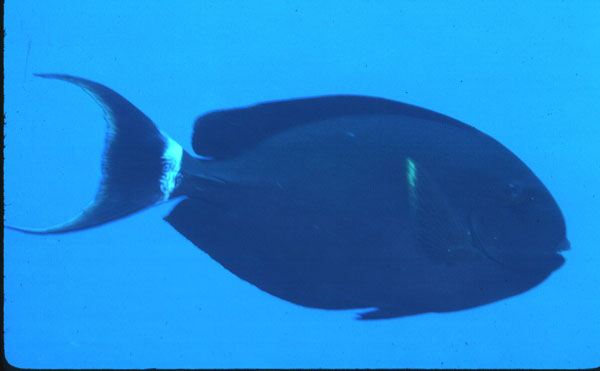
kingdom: Animalia
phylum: Chordata
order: Perciformes
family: Acanthuridae
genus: Acanthurus
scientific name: Acanthurus gahhm
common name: Black surgeonfish
